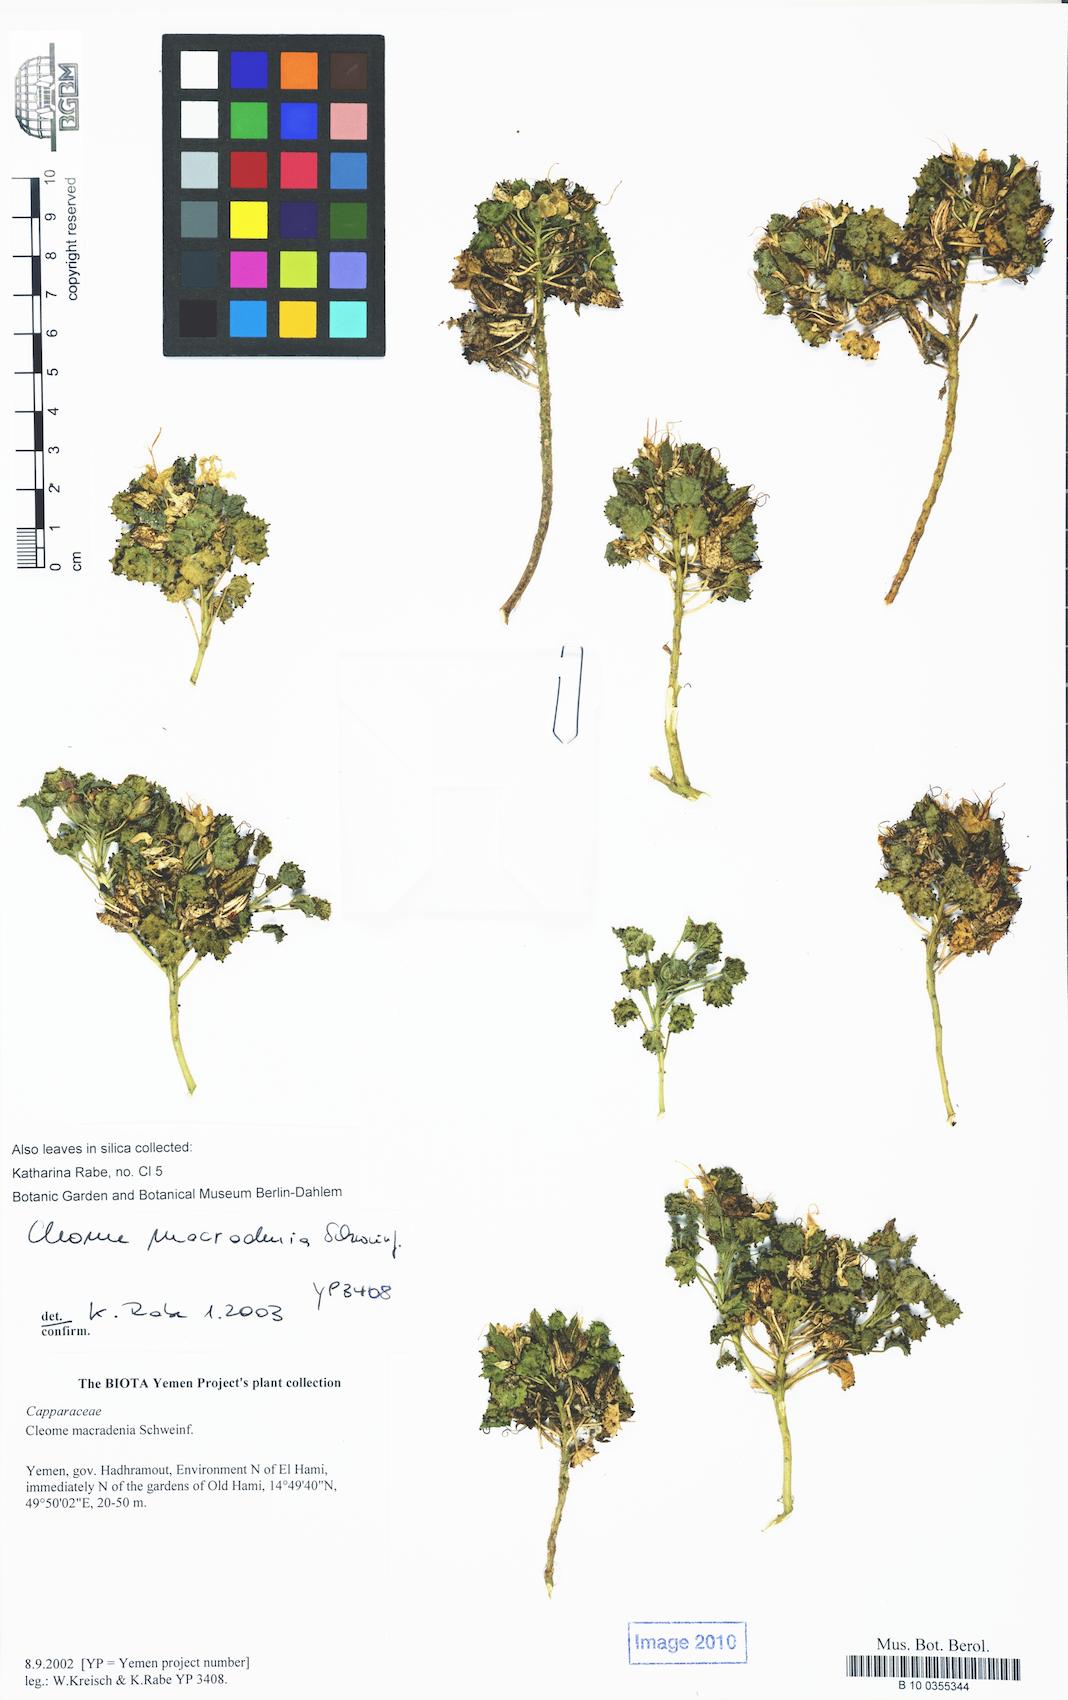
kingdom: Plantae
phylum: Tracheophyta
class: Magnoliopsida
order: Brassicales
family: Cleomaceae
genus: Rorida
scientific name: Rorida macradenia
